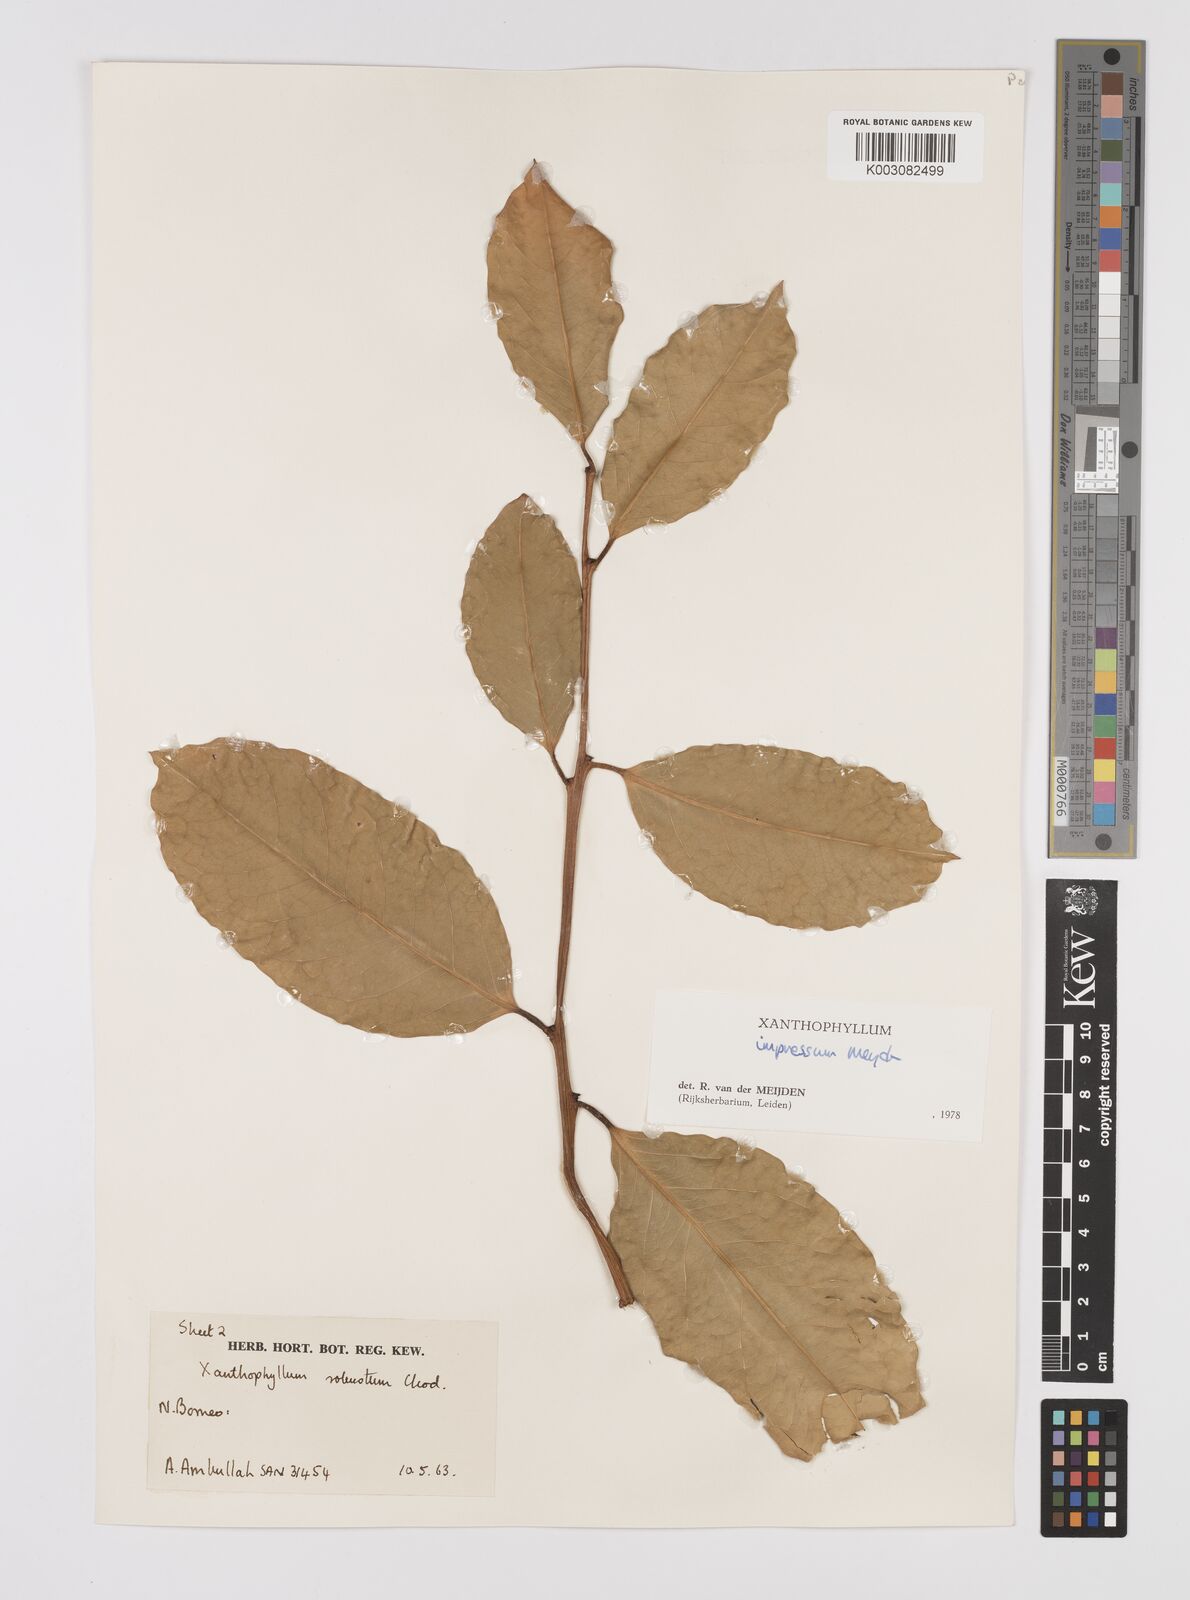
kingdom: Plantae
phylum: Tracheophyta
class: Magnoliopsida
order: Fabales
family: Polygalaceae
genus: Xanthophyllum
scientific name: Xanthophyllum impressum
